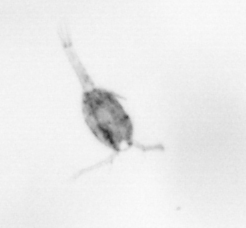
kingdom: Animalia
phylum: Arthropoda
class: Copepoda
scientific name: Copepoda
